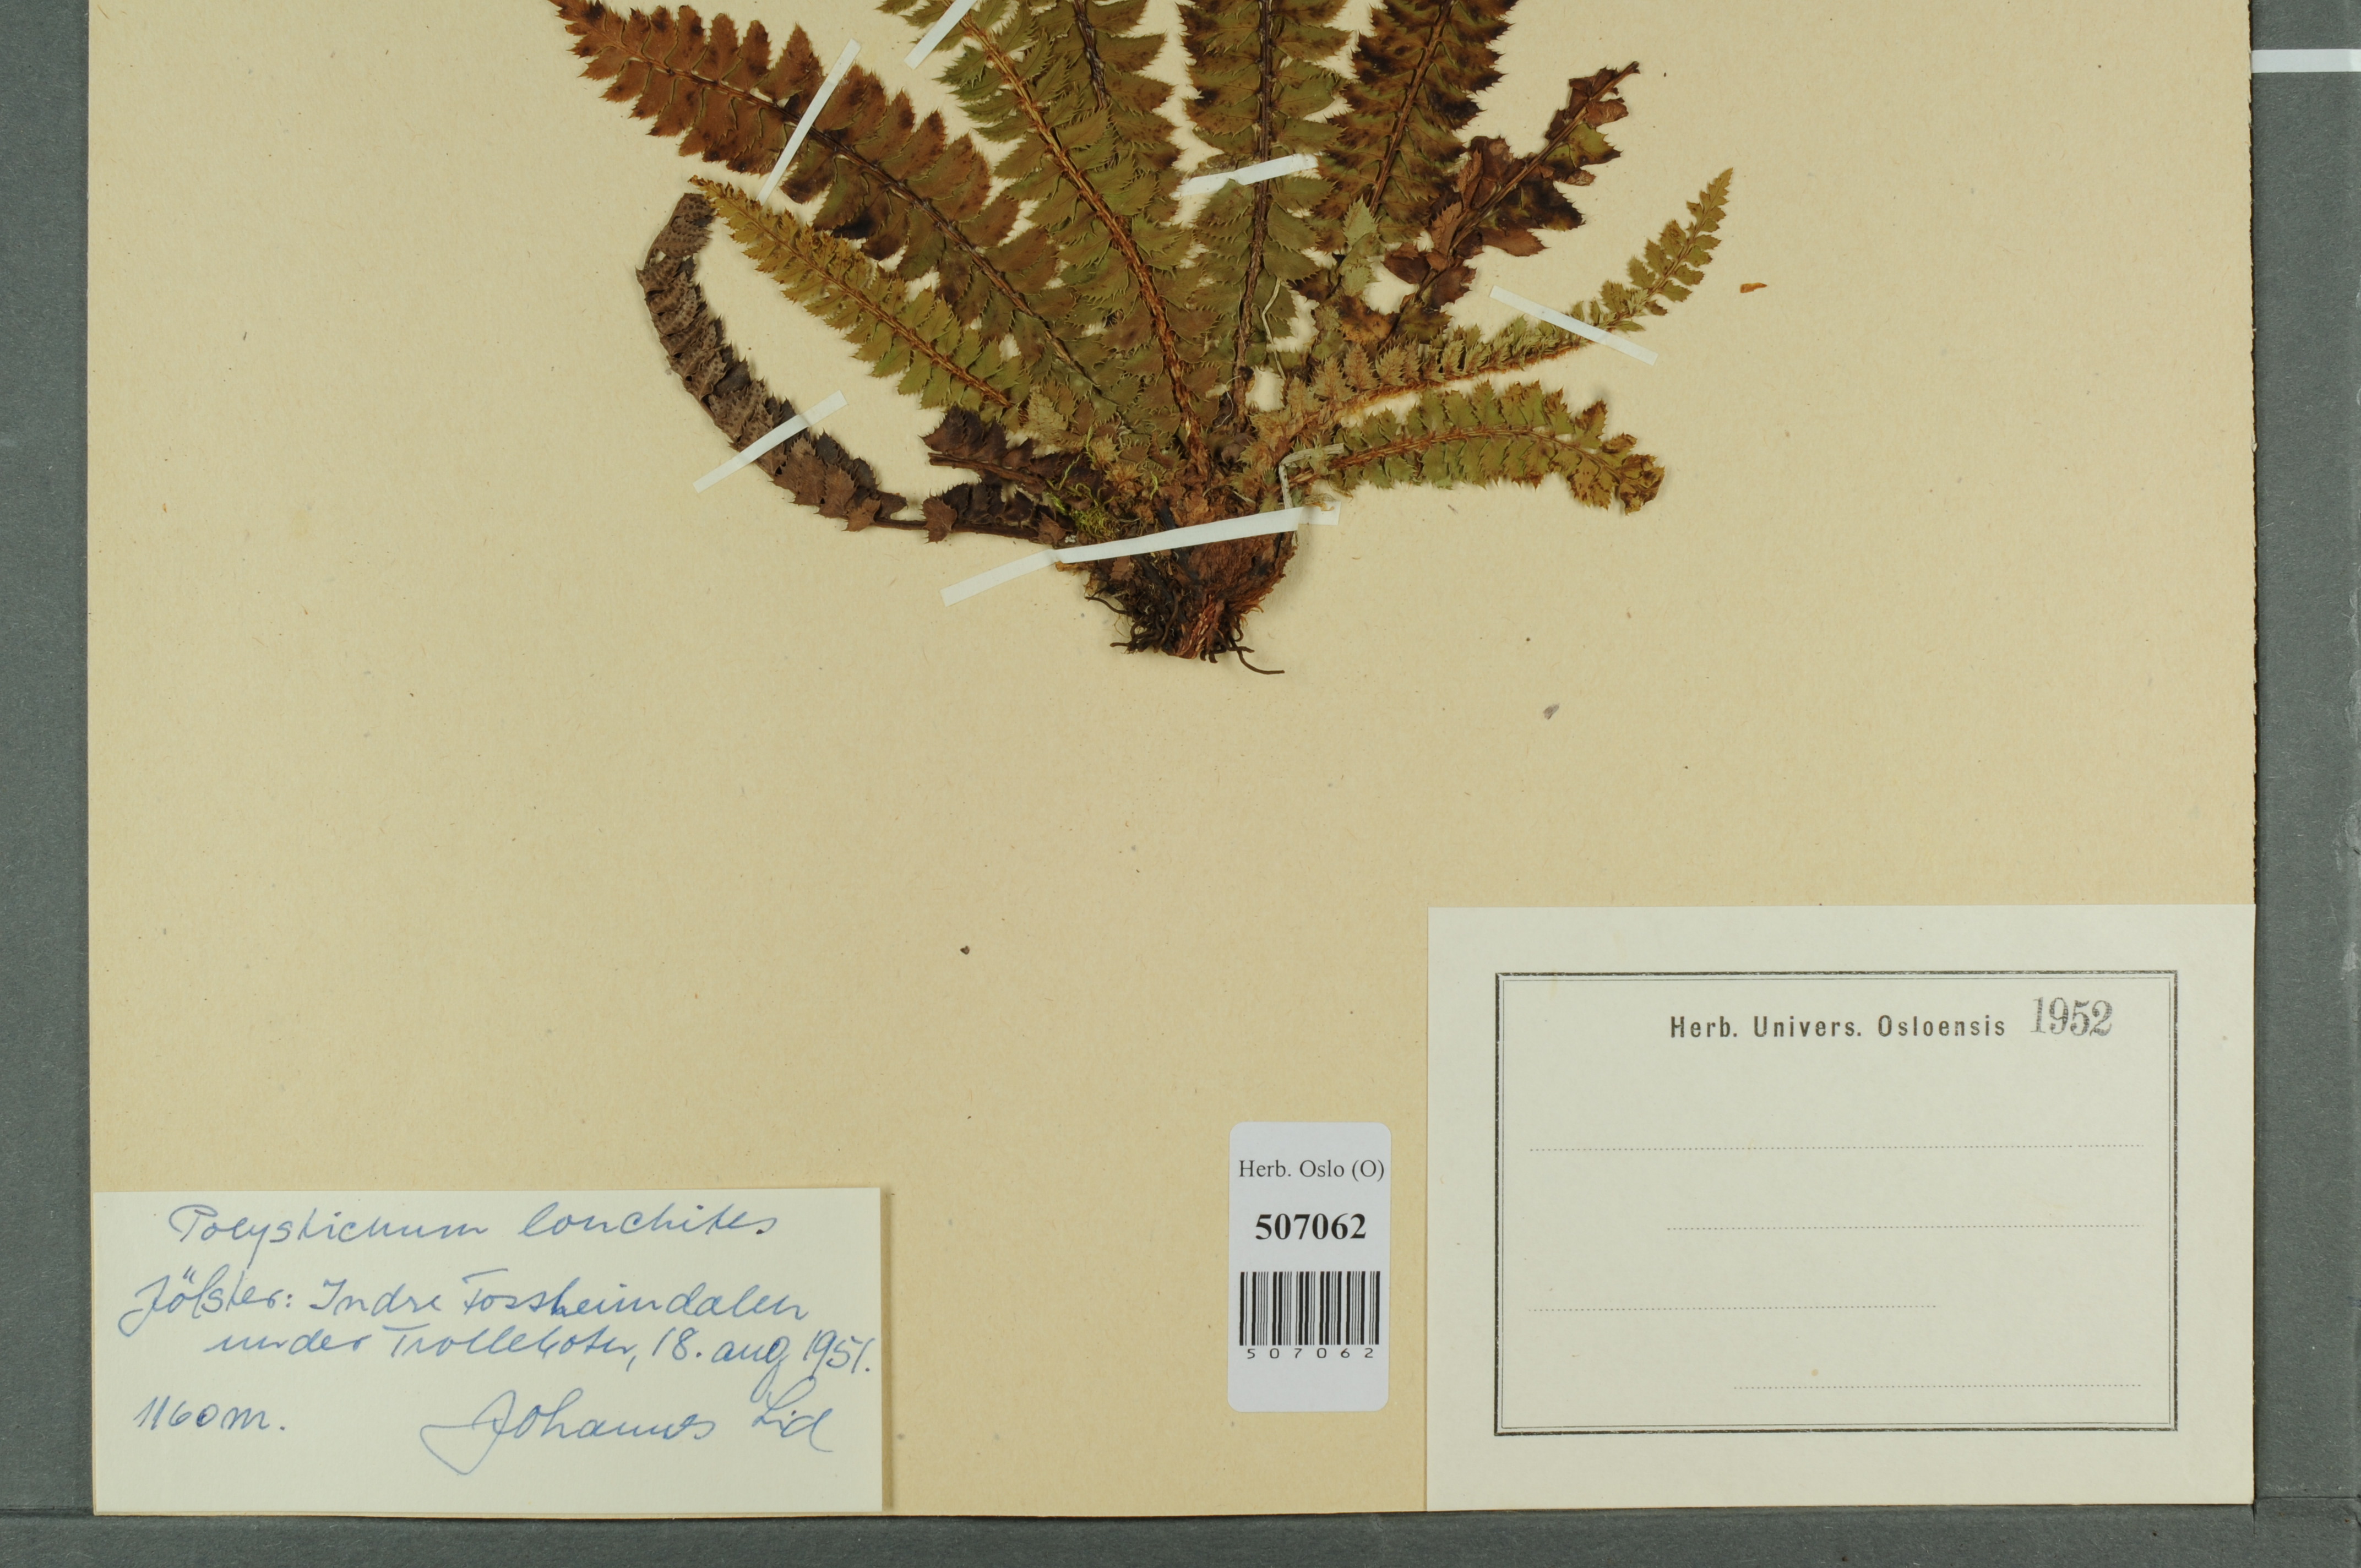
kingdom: Plantae
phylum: Tracheophyta
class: Polypodiopsida
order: Polypodiales
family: Dryopteridaceae
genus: Polystichum
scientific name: Polystichum lonchitis
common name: Holly fern
